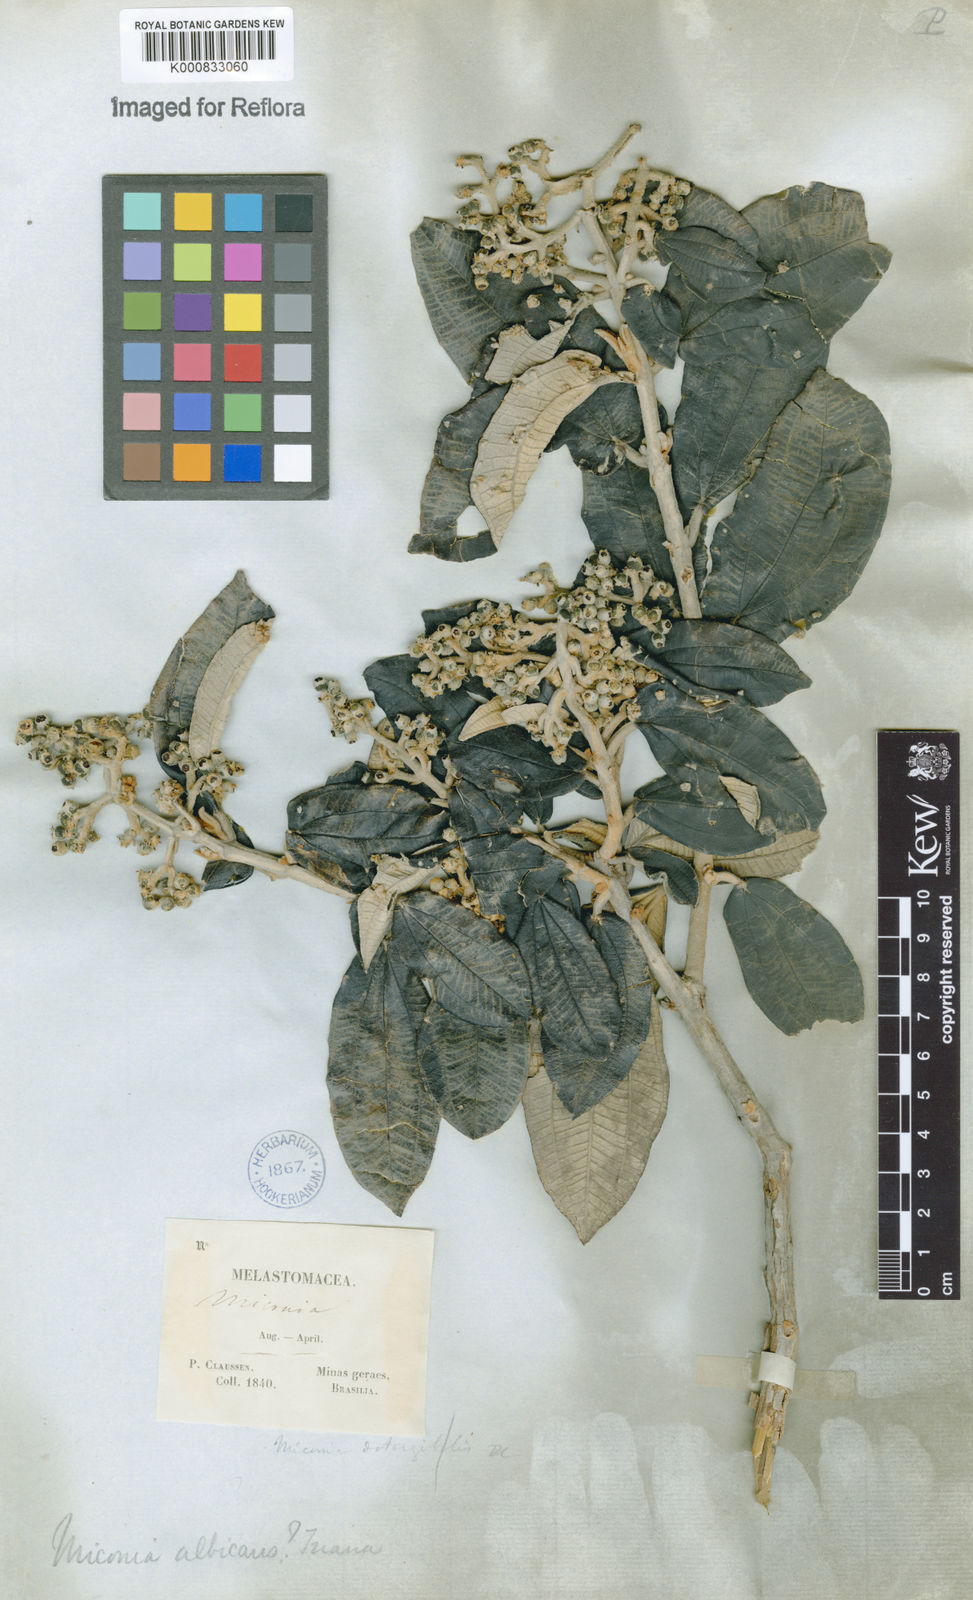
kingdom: Plantae
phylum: Tracheophyta
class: Magnoliopsida
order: Myrtales
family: Melastomataceae
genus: Miconia
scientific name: Miconia albicans
